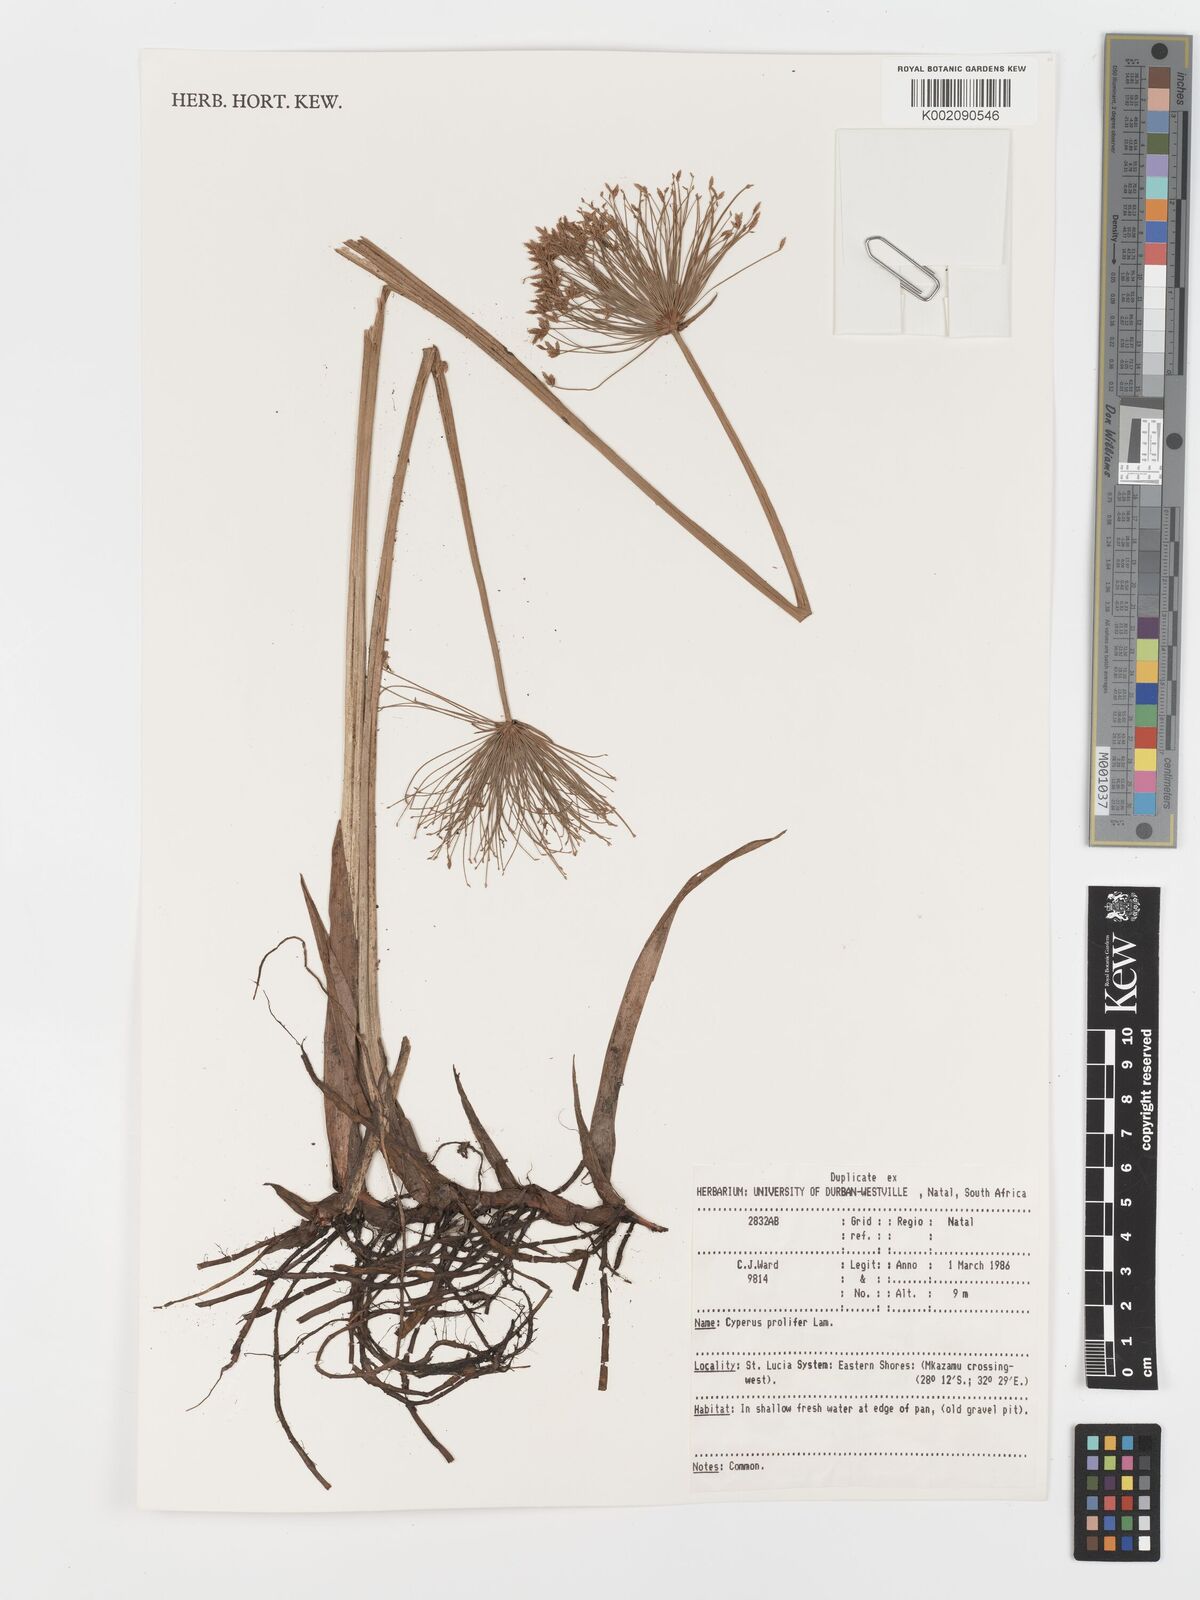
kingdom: Plantae
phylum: Tracheophyta
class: Liliopsida
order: Poales
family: Cyperaceae
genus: Cyperus
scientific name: Cyperus prolifer
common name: Miniature flatsedge
